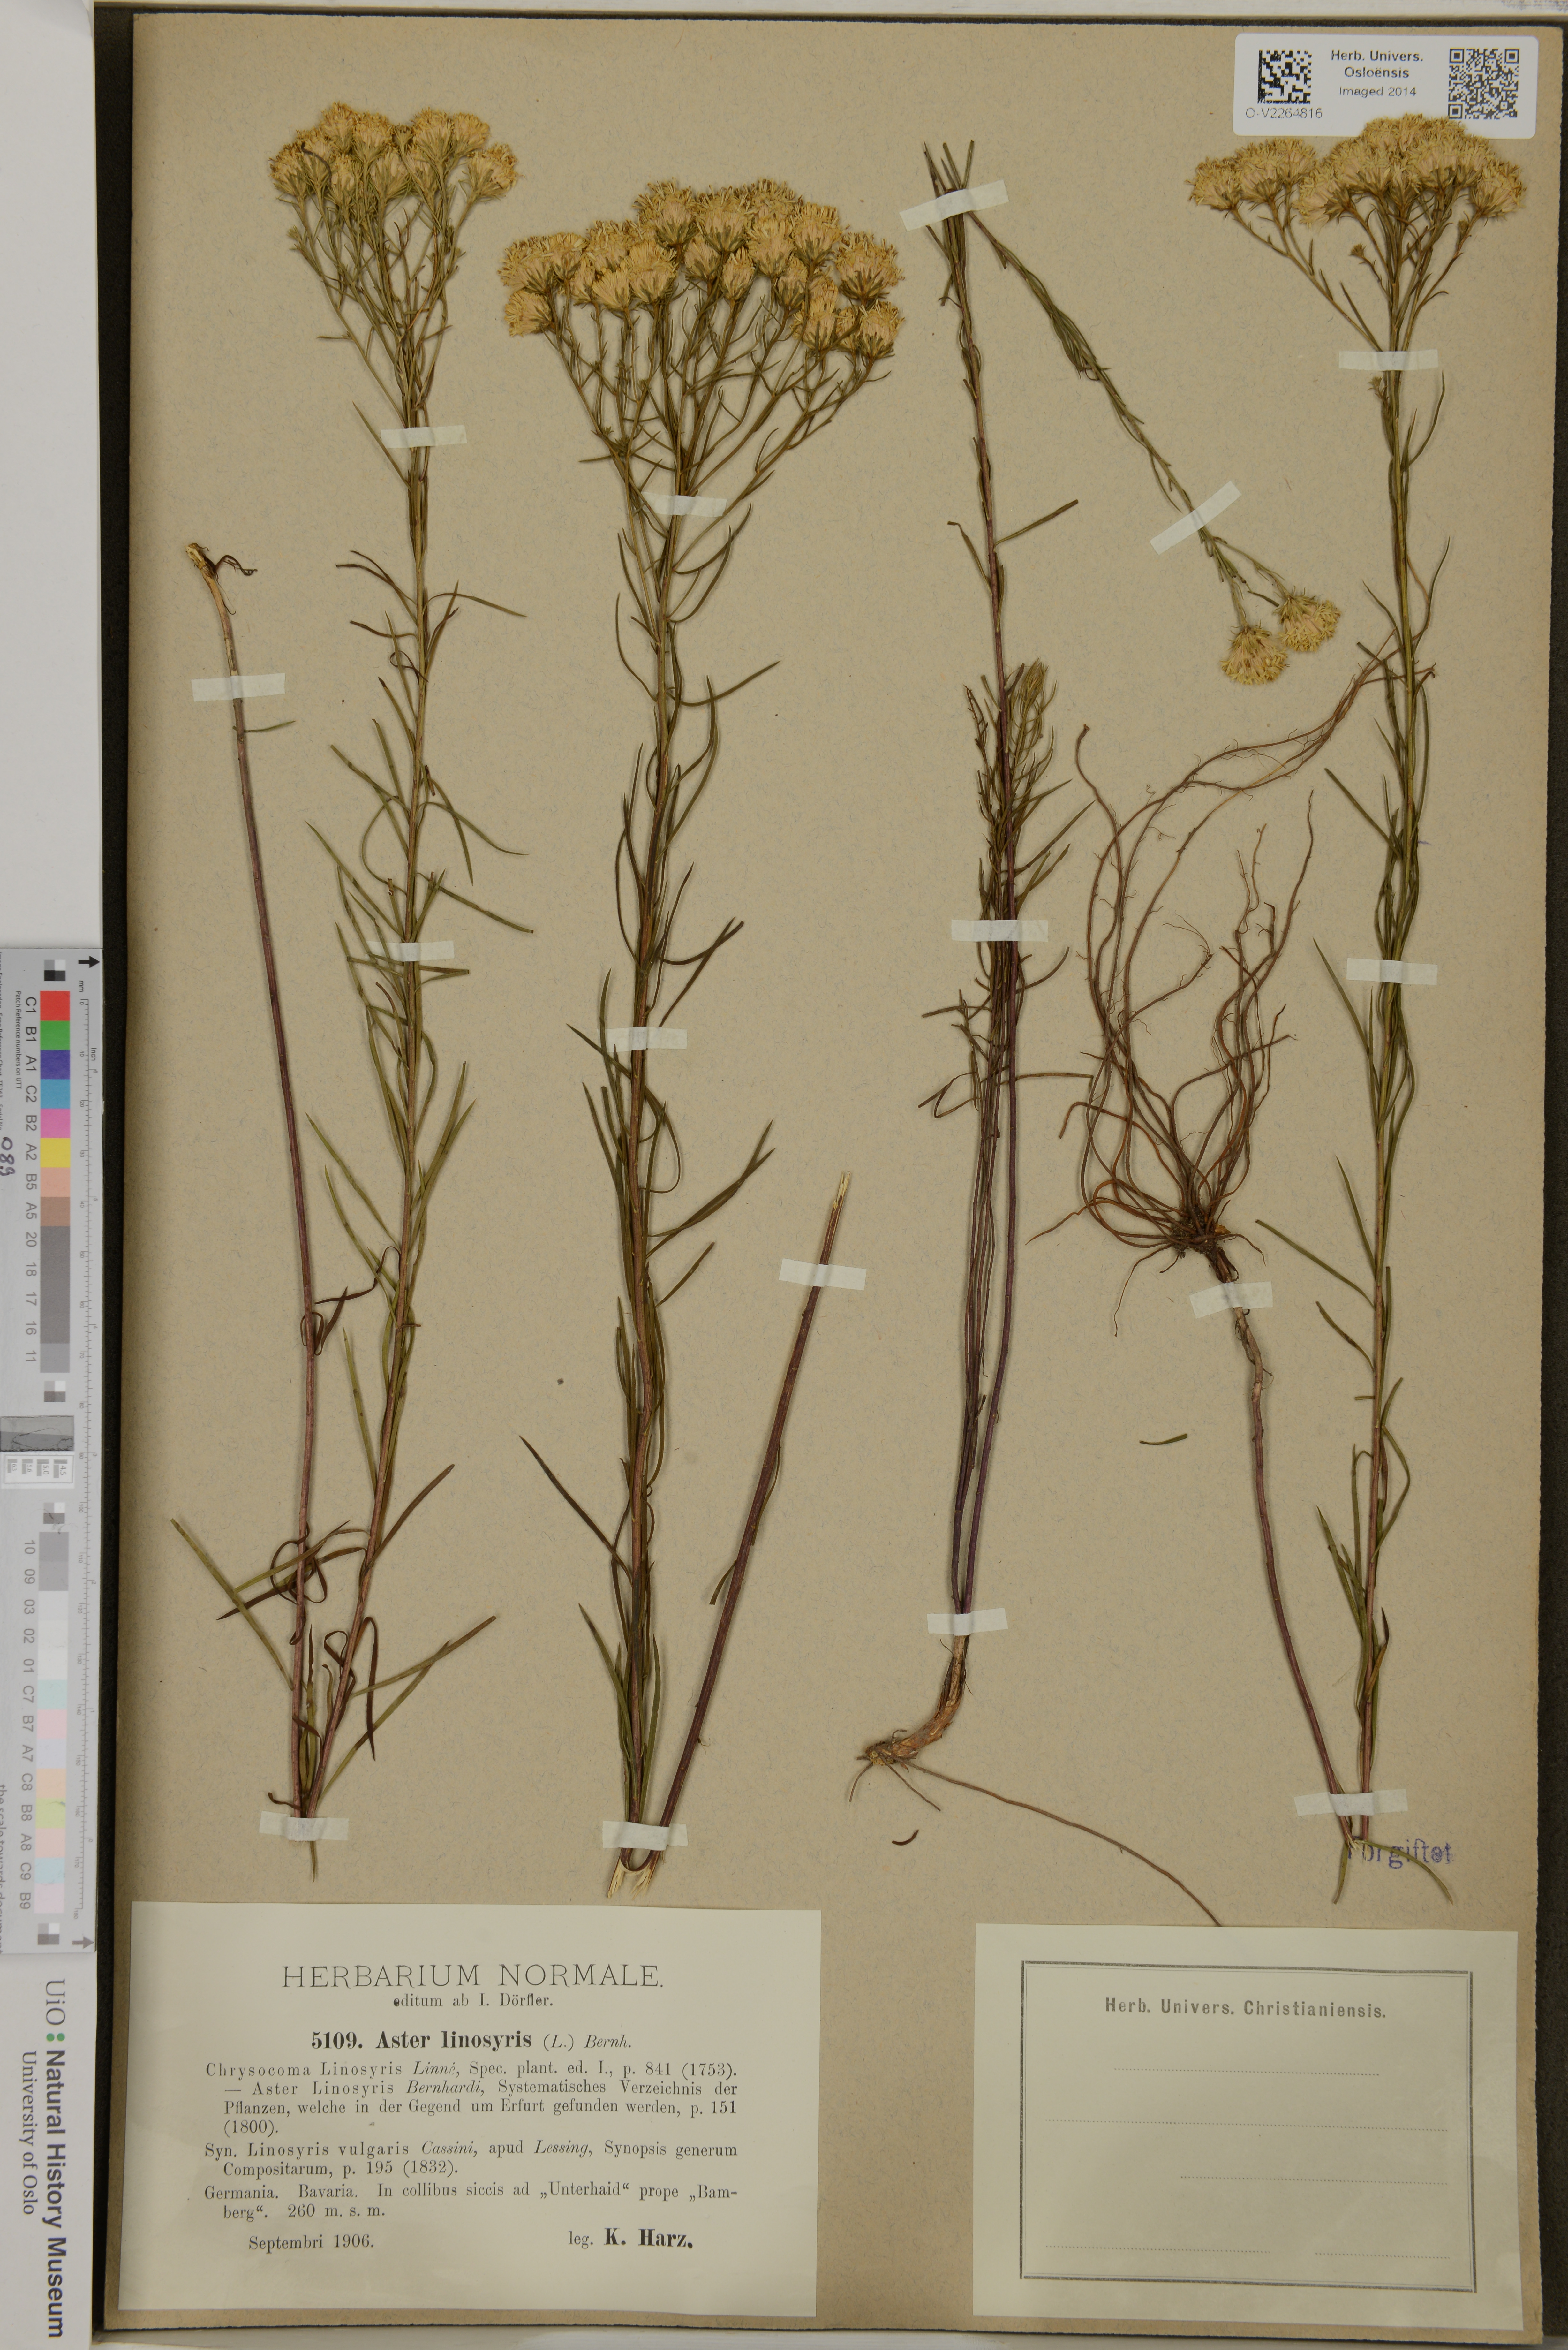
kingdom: Plantae
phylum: Tracheophyta
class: Magnoliopsida
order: Asterales
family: Asteraceae
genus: Galatella
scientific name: Galatella linosyris
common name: Goldilocks aster
